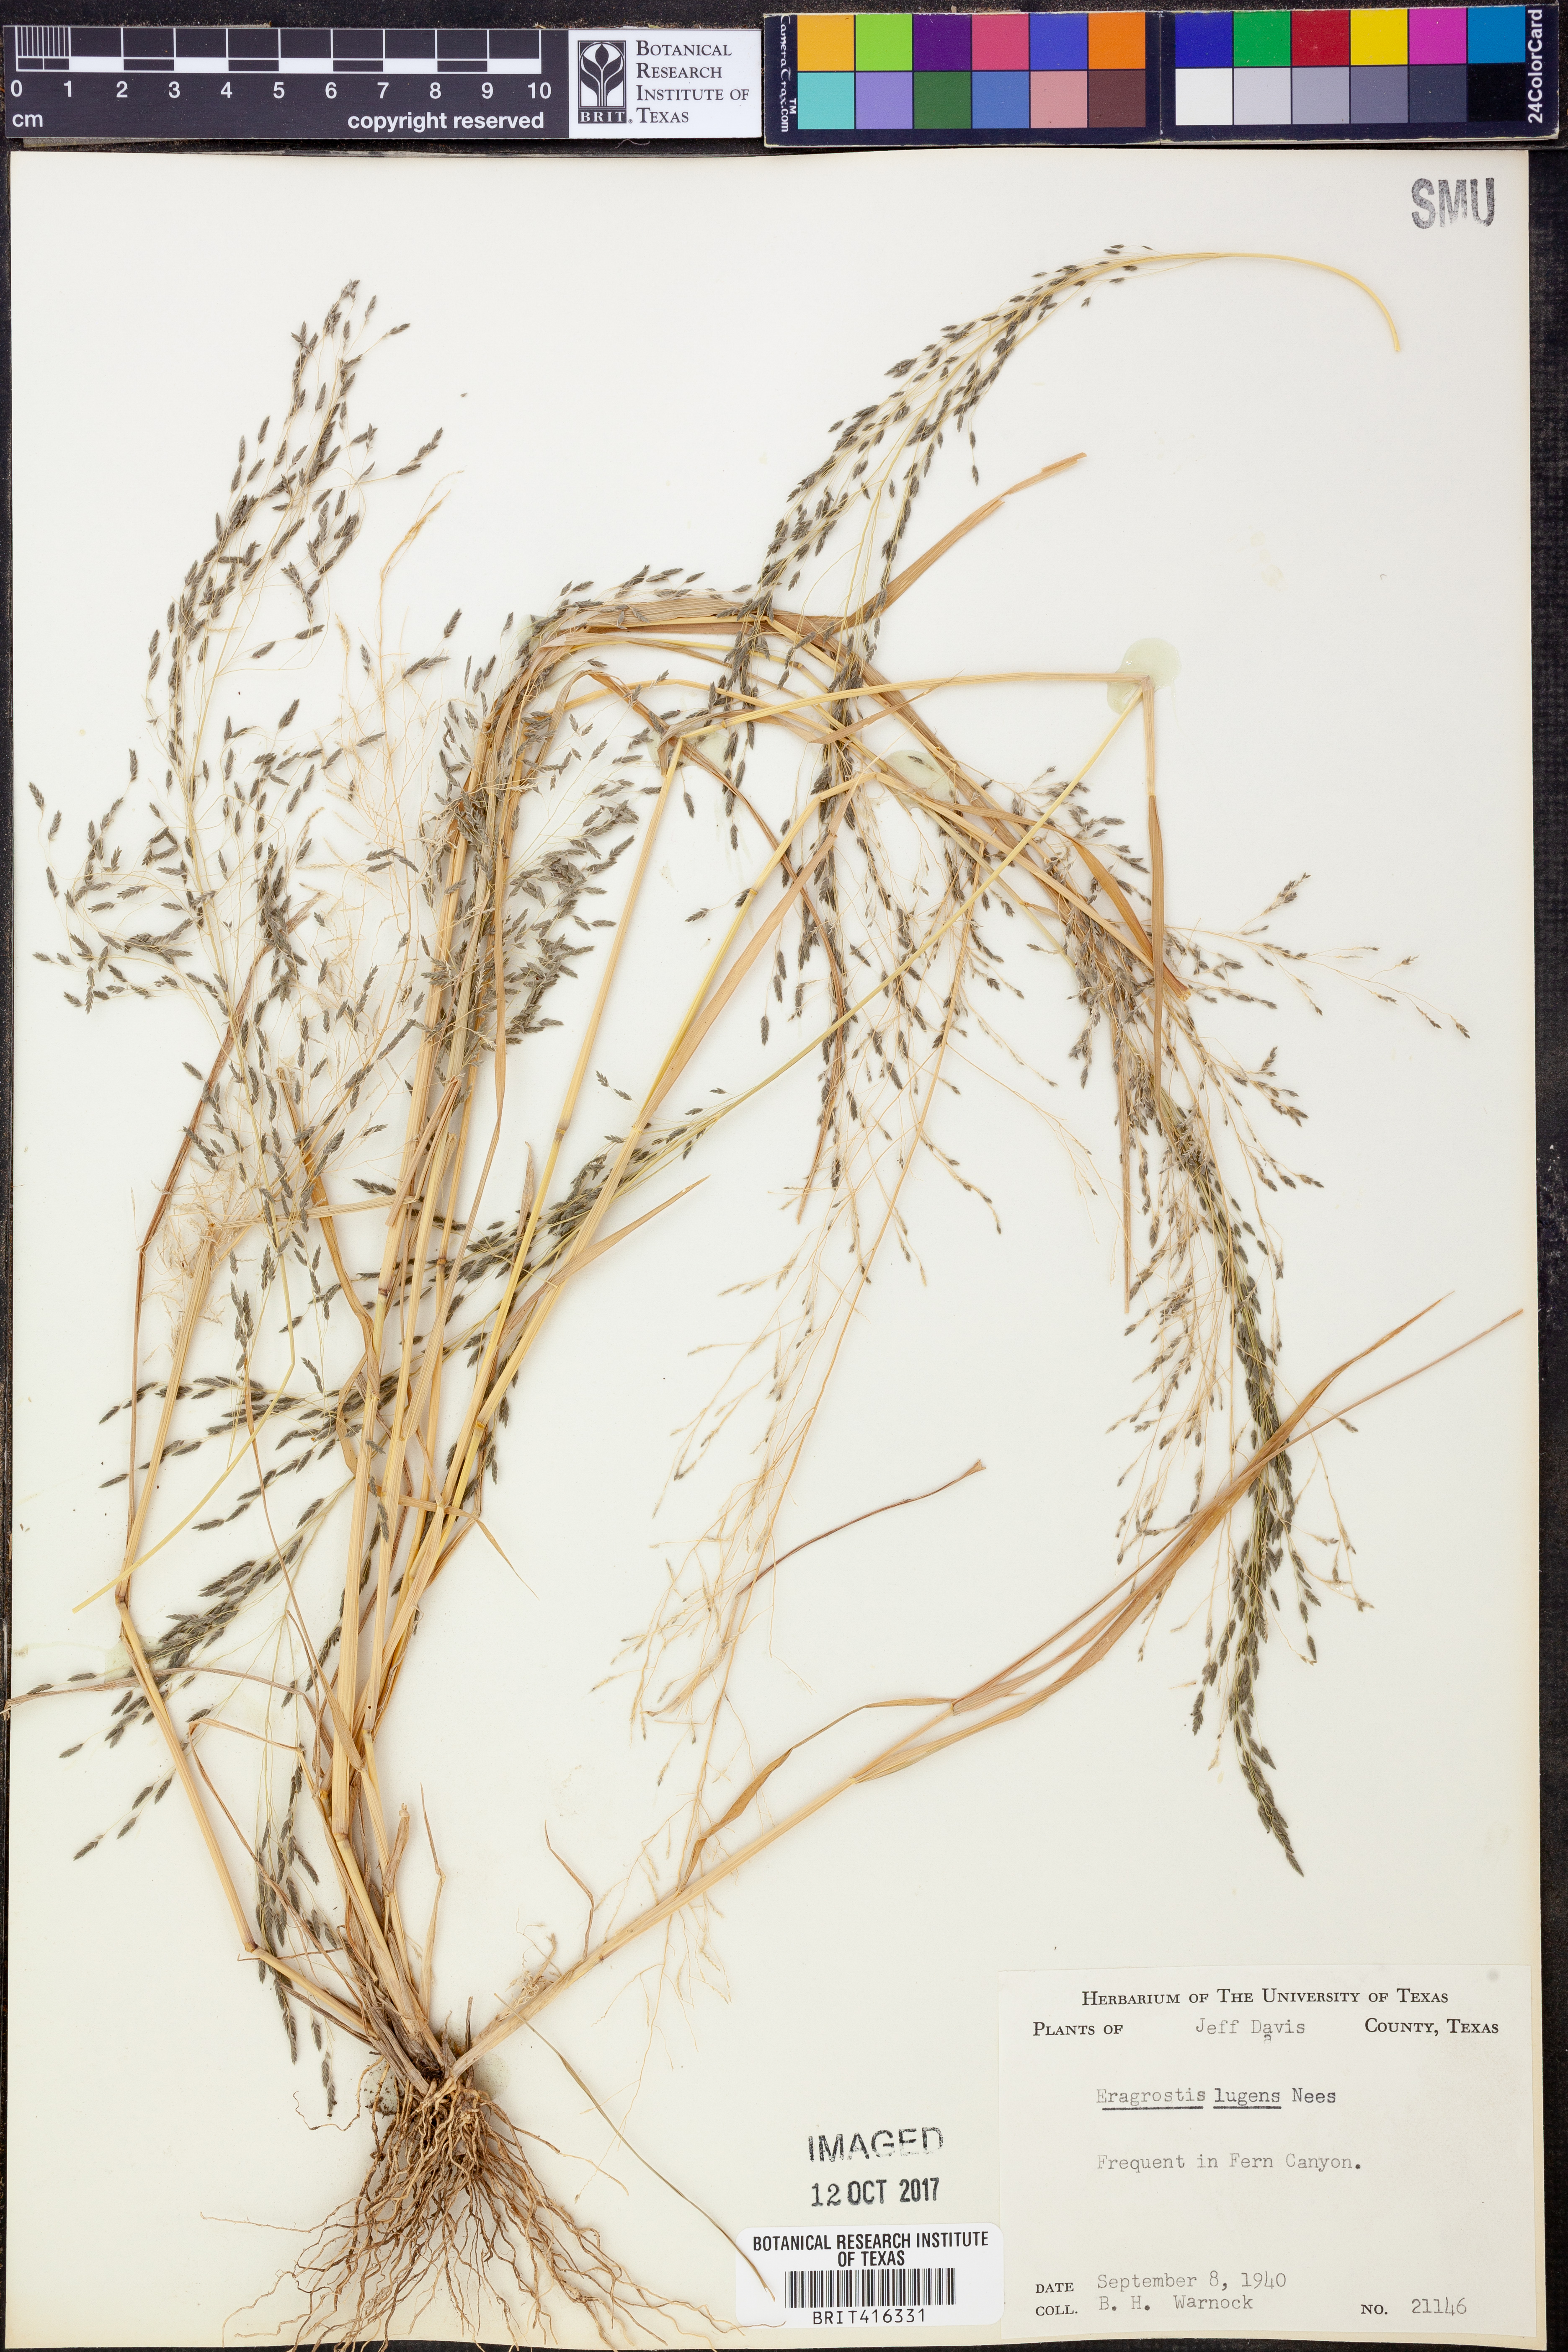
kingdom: Plantae
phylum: Tracheophyta
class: Liliopsida
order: Poales
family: Poaceae
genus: Eragrostis
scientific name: Eragrostis capillaris
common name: Hair-like lovegrass
